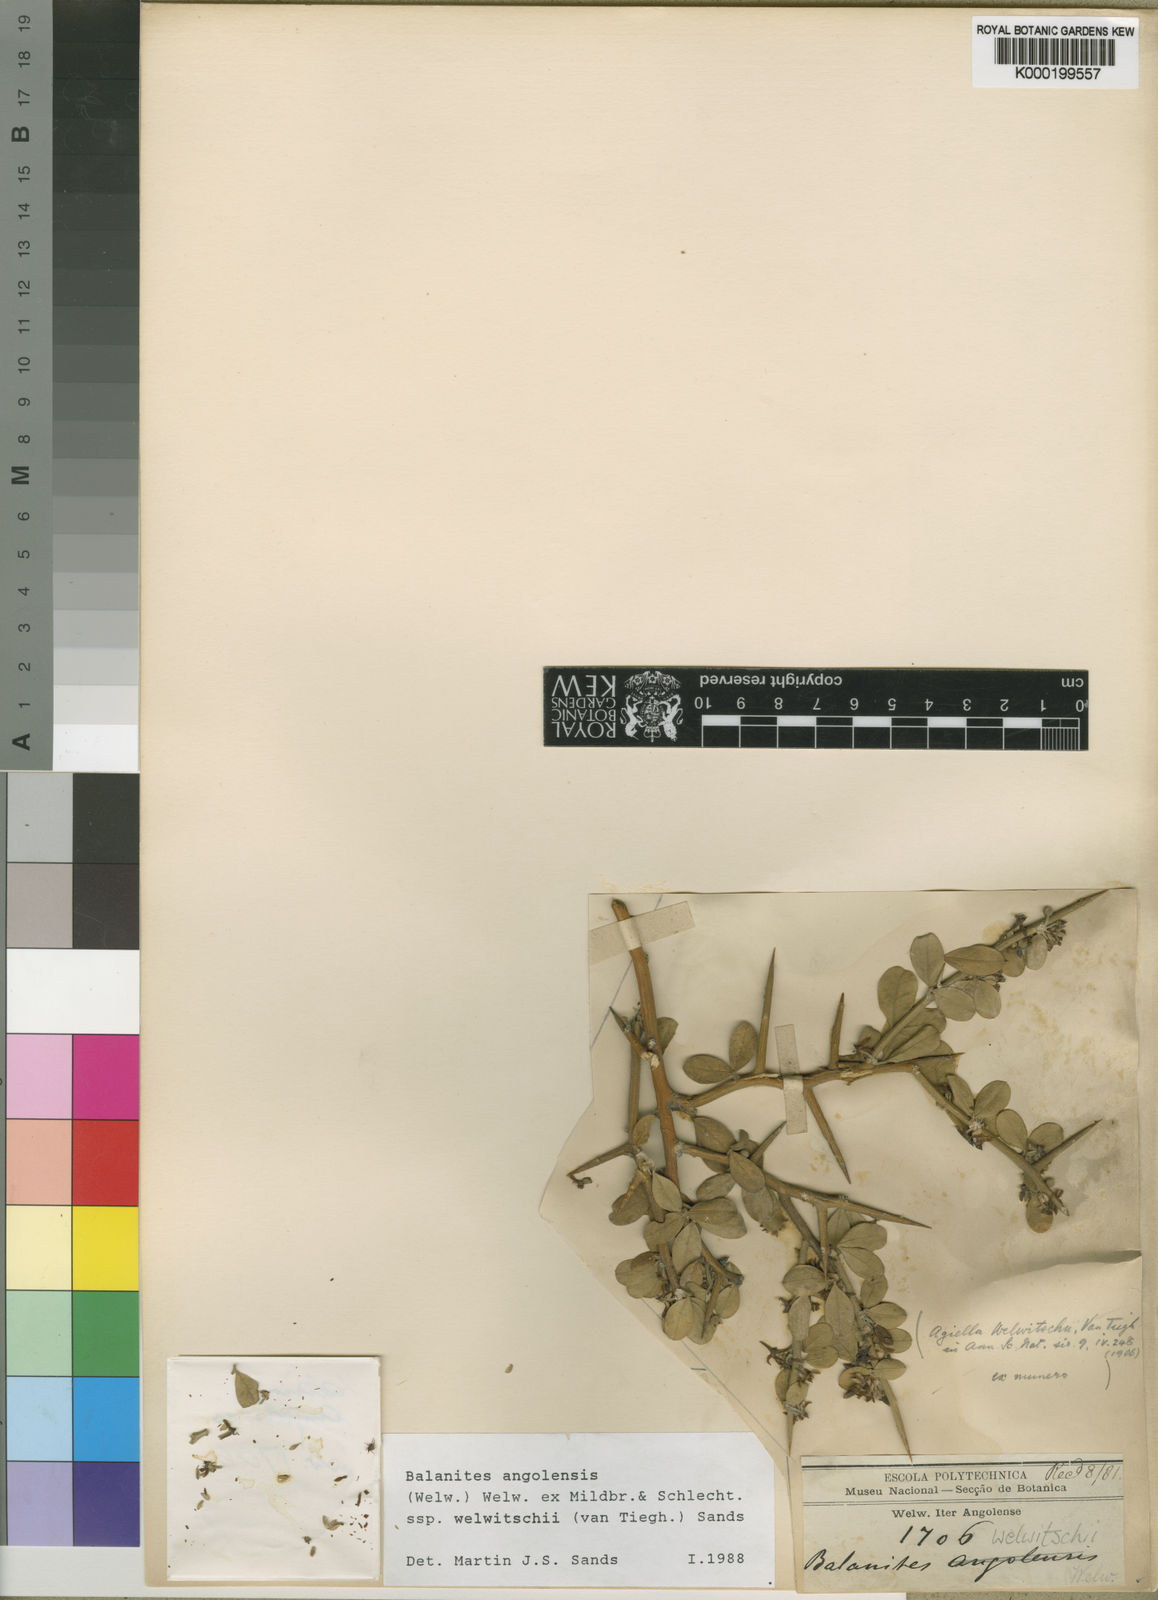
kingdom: Plantae
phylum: Tracheophyta
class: Magnoliopsida
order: Zygophyllales
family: Zygophyllaceae
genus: Balanites
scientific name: Balanites angolensis
